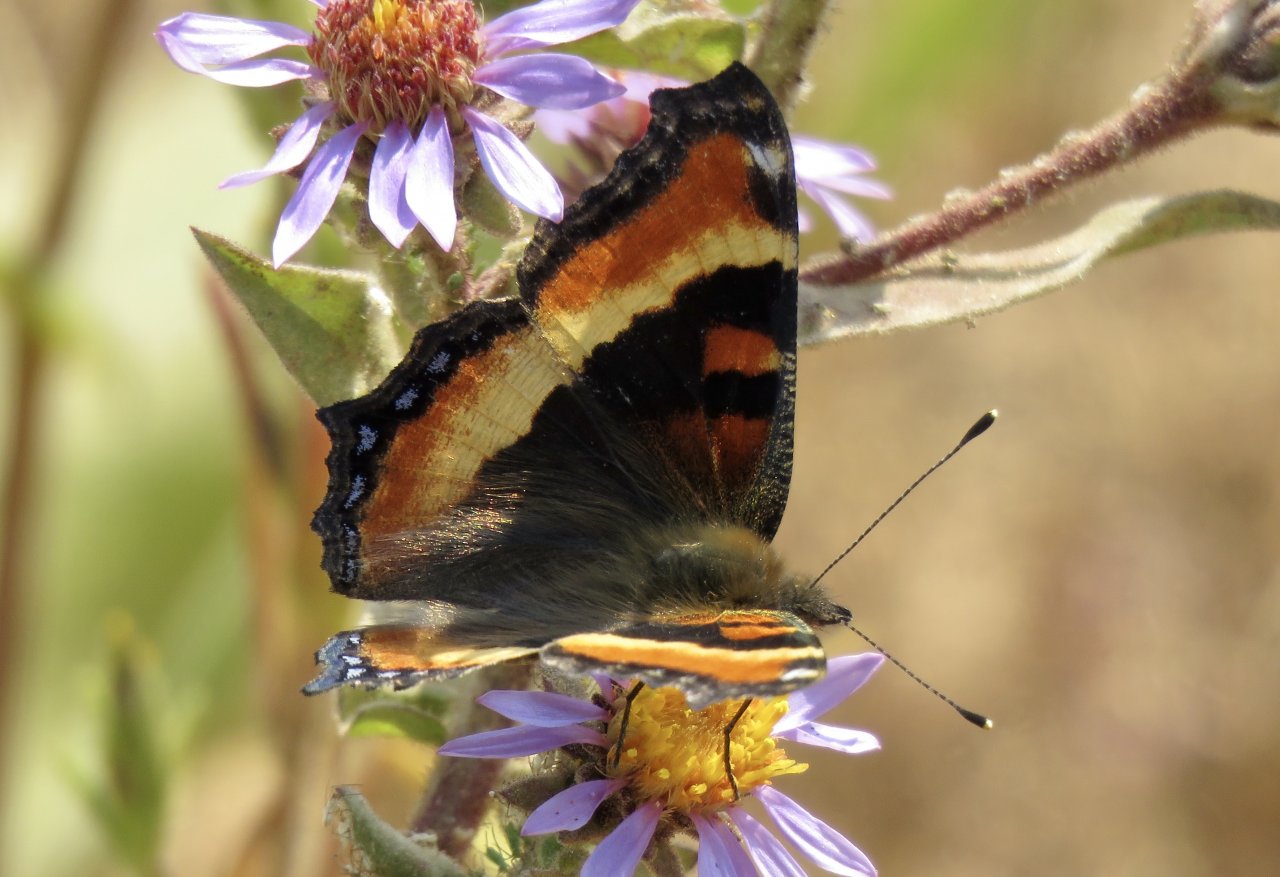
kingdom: Animalia
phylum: Arthropoda
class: Insecta
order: Lepidoptera
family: Nymphalidae
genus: Aglais
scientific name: Aglais milberti
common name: Milbert's Tortoiseshell
